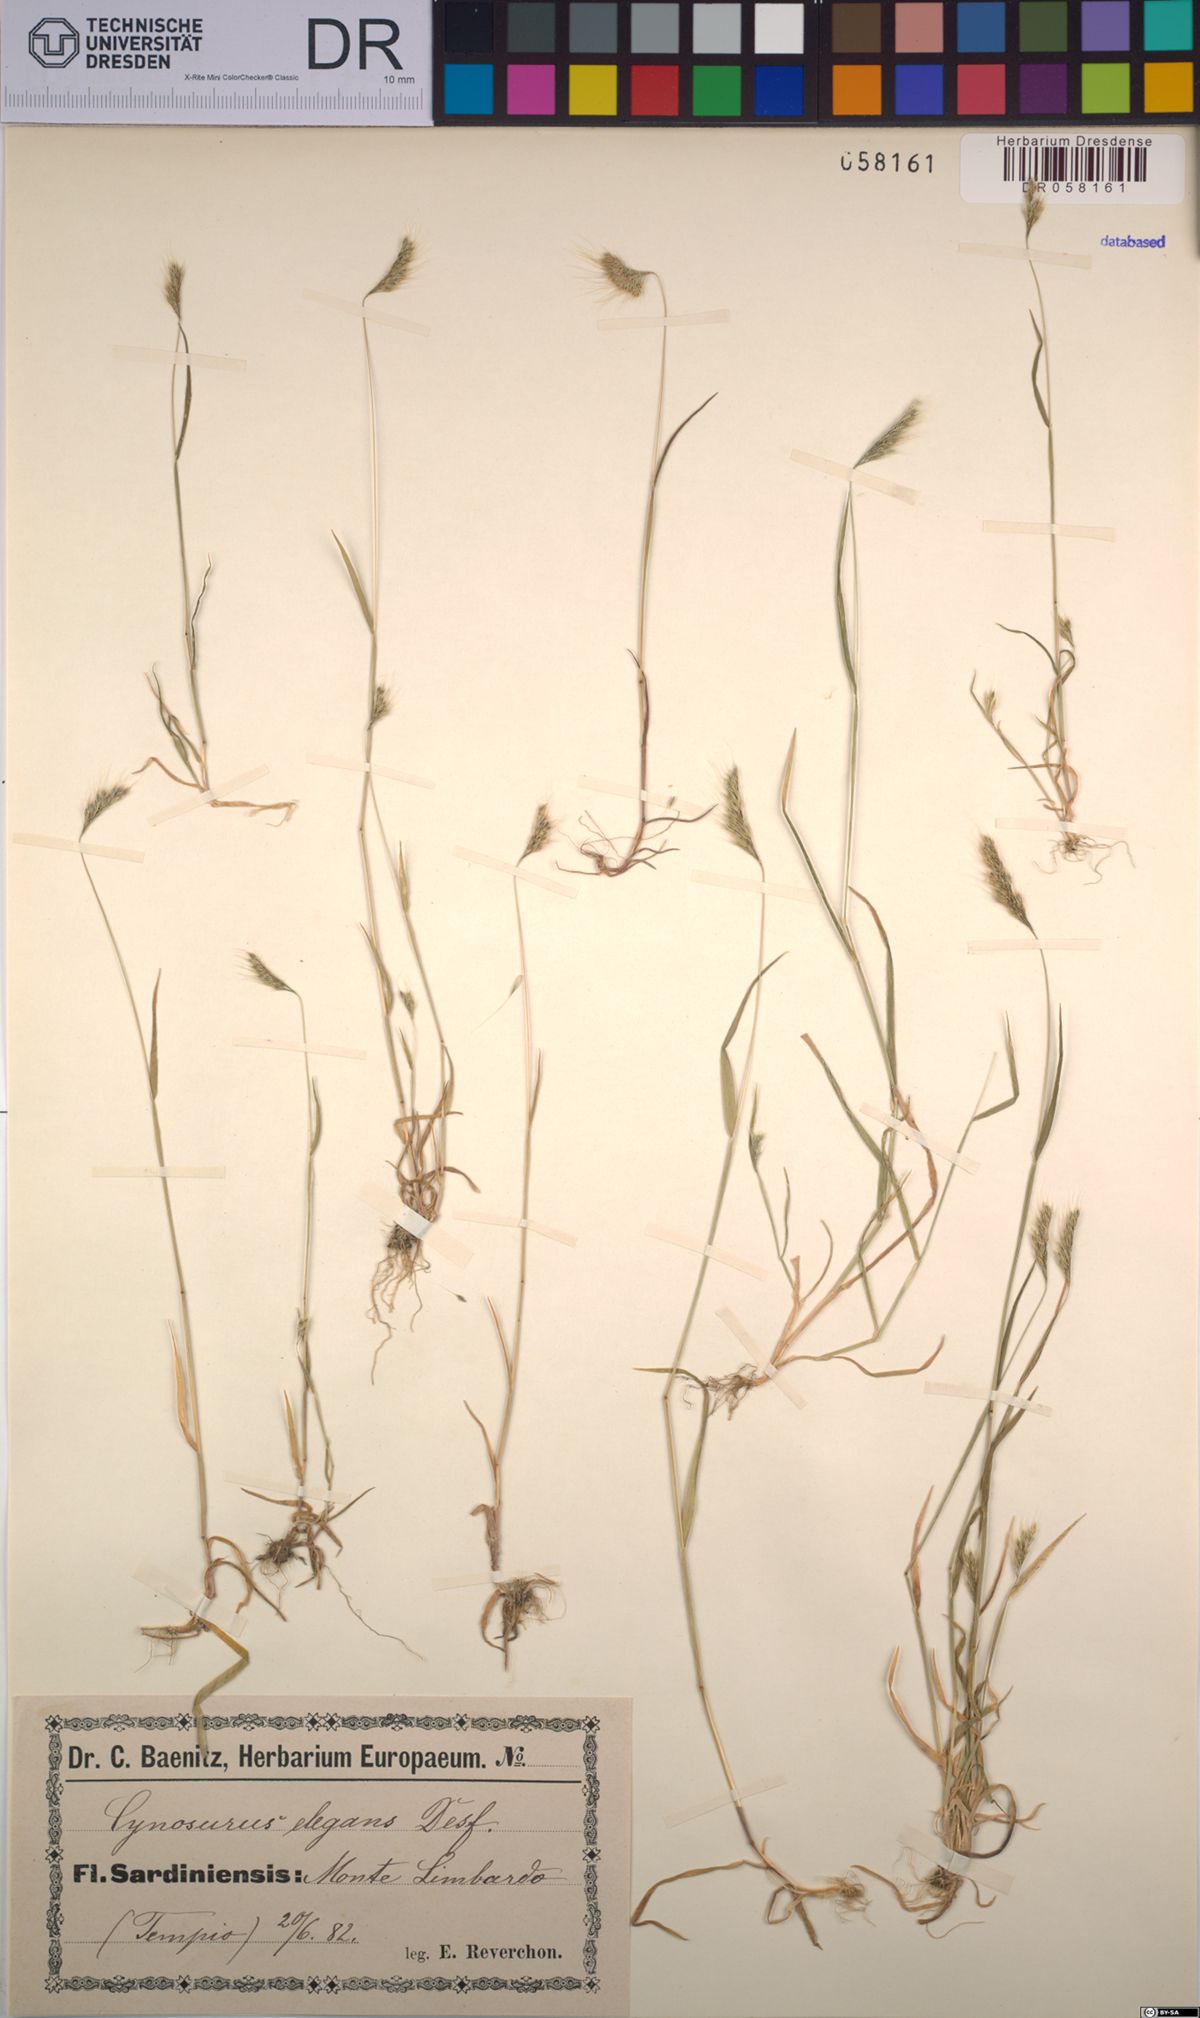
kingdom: Plantae
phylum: Tracheophyta
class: Liliopsida
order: Poales
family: Poaceae
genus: Cynosurus
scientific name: Cynosurus elegans
